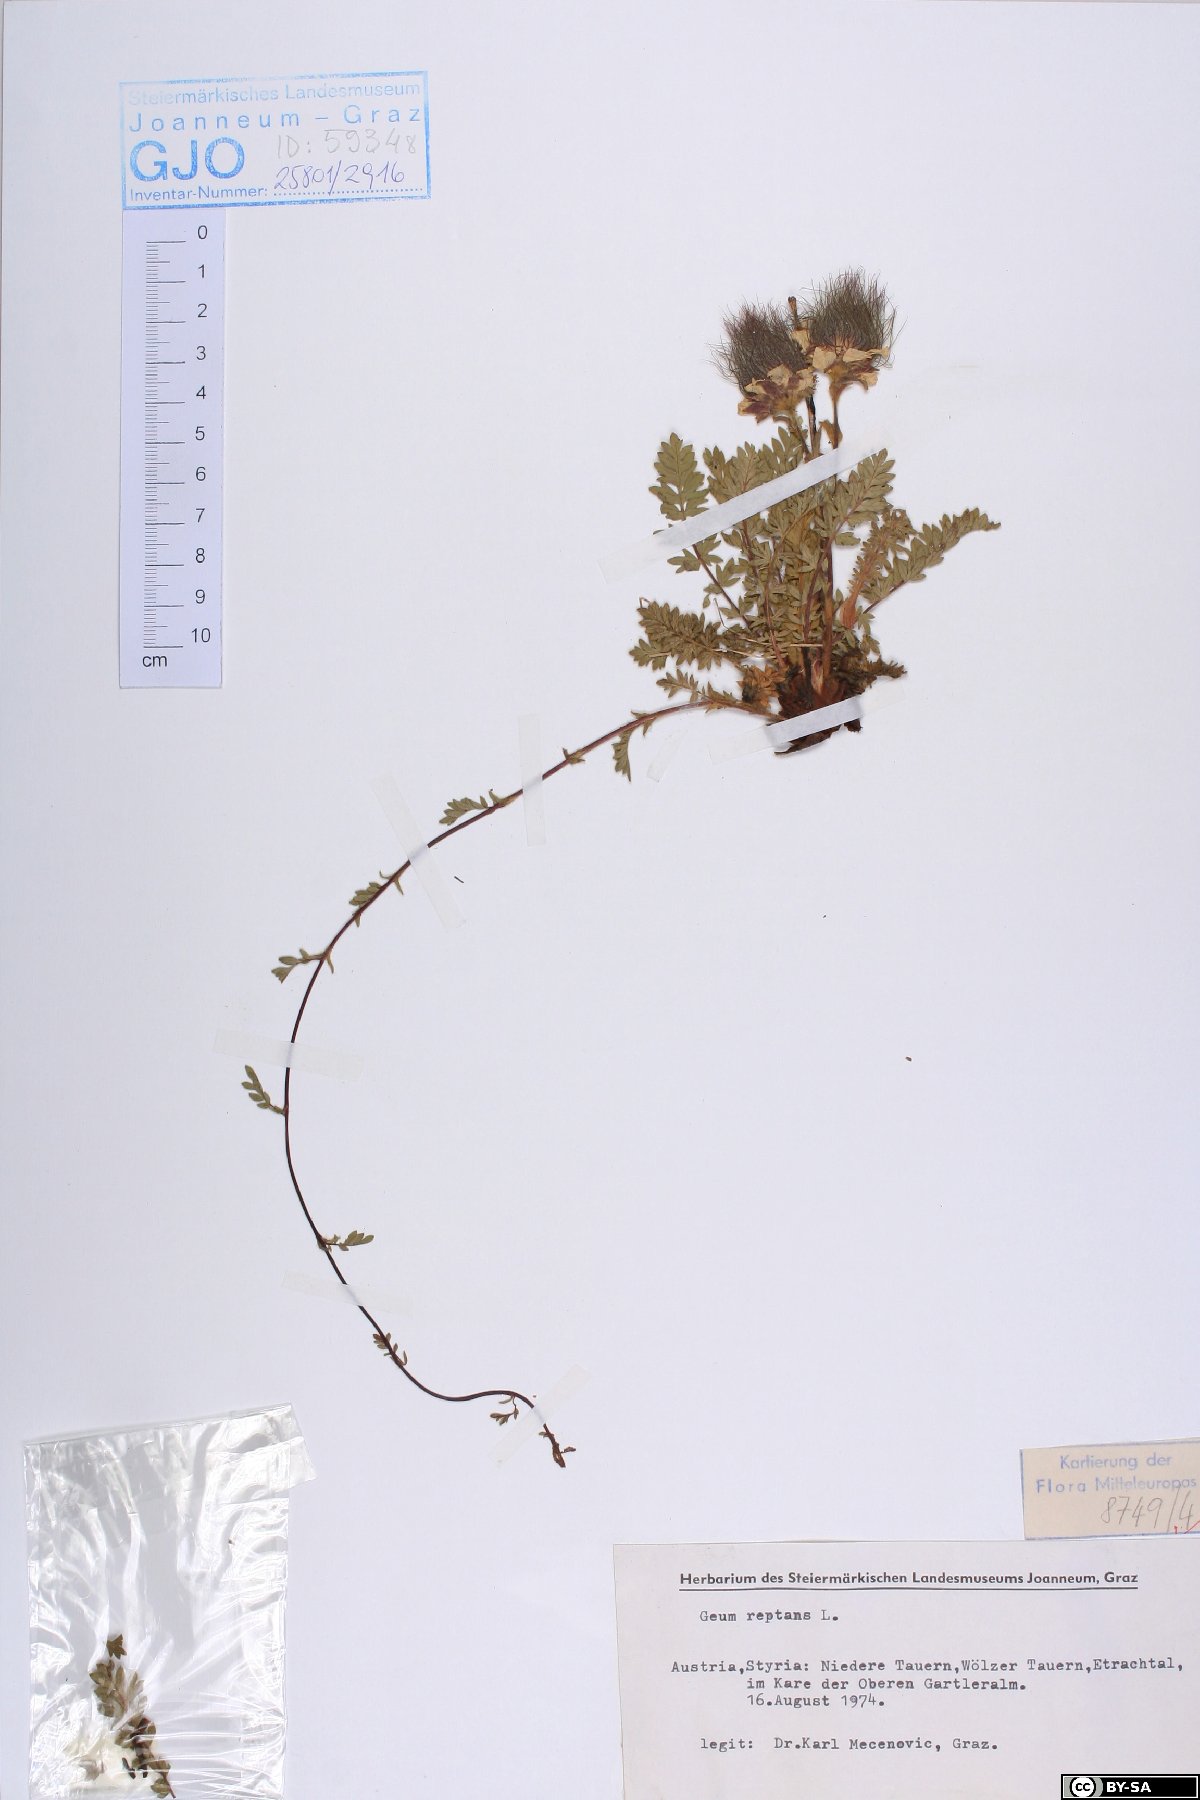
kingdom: Plantae
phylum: Tracheophyta
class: Magnoliopsida
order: Rosales
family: Rosaceae
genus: Geum
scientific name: Geum reptans
